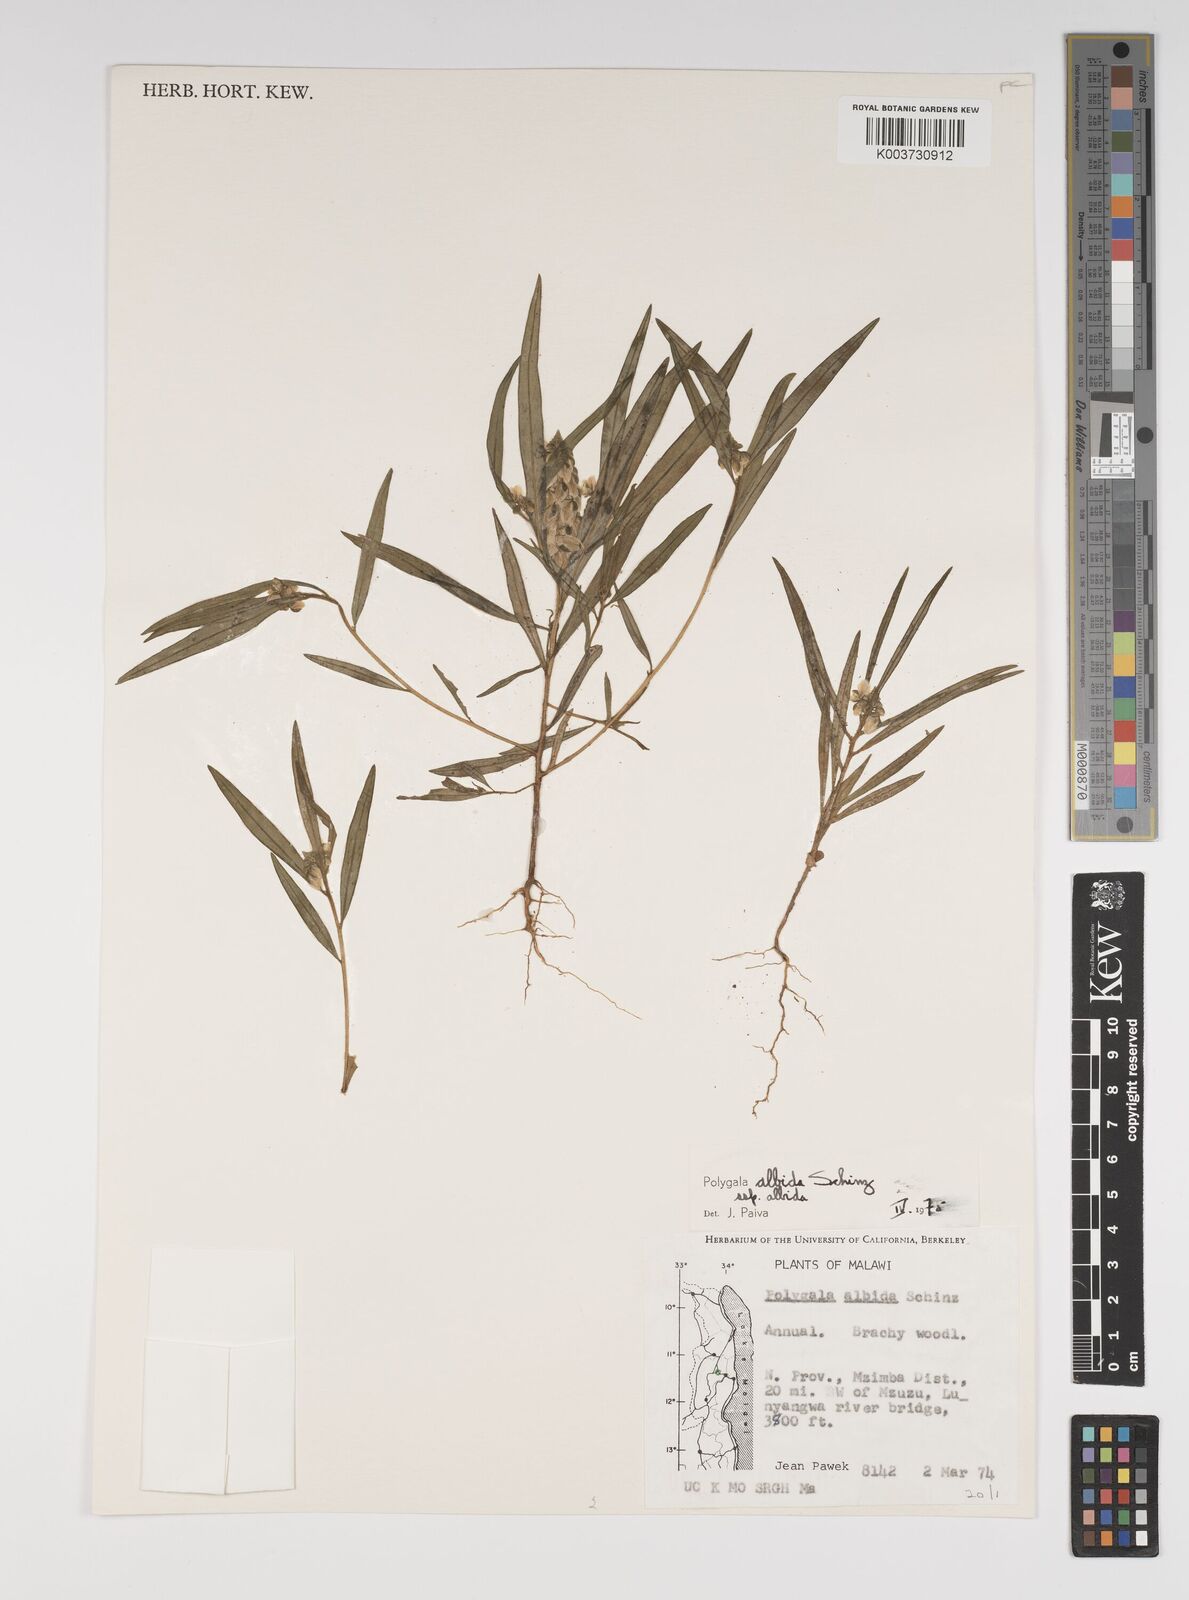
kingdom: Plantae
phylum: Tracheophyta
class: Magnoliopsida
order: Fabales
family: Polygalaceae
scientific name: Polygalaceae
